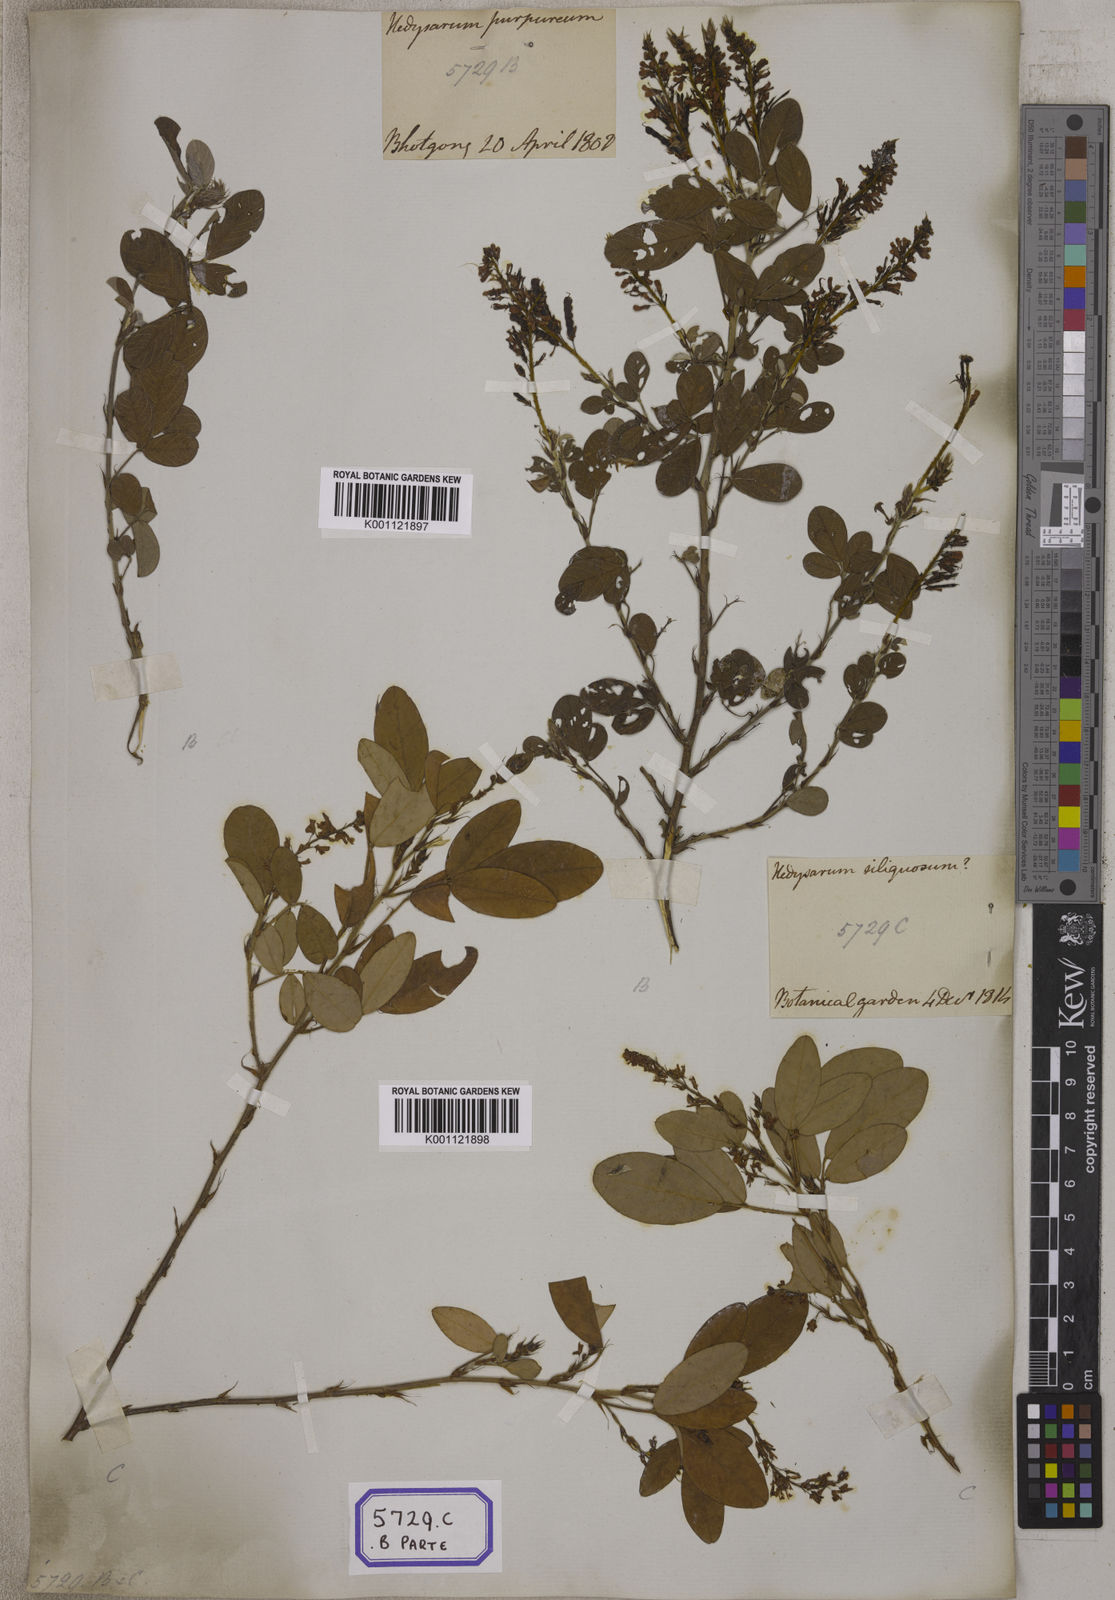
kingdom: Plantae
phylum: Tracheophyta
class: Magnoliopsida
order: Fabales
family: Fabaceae
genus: Desmodium
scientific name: Desmodium
